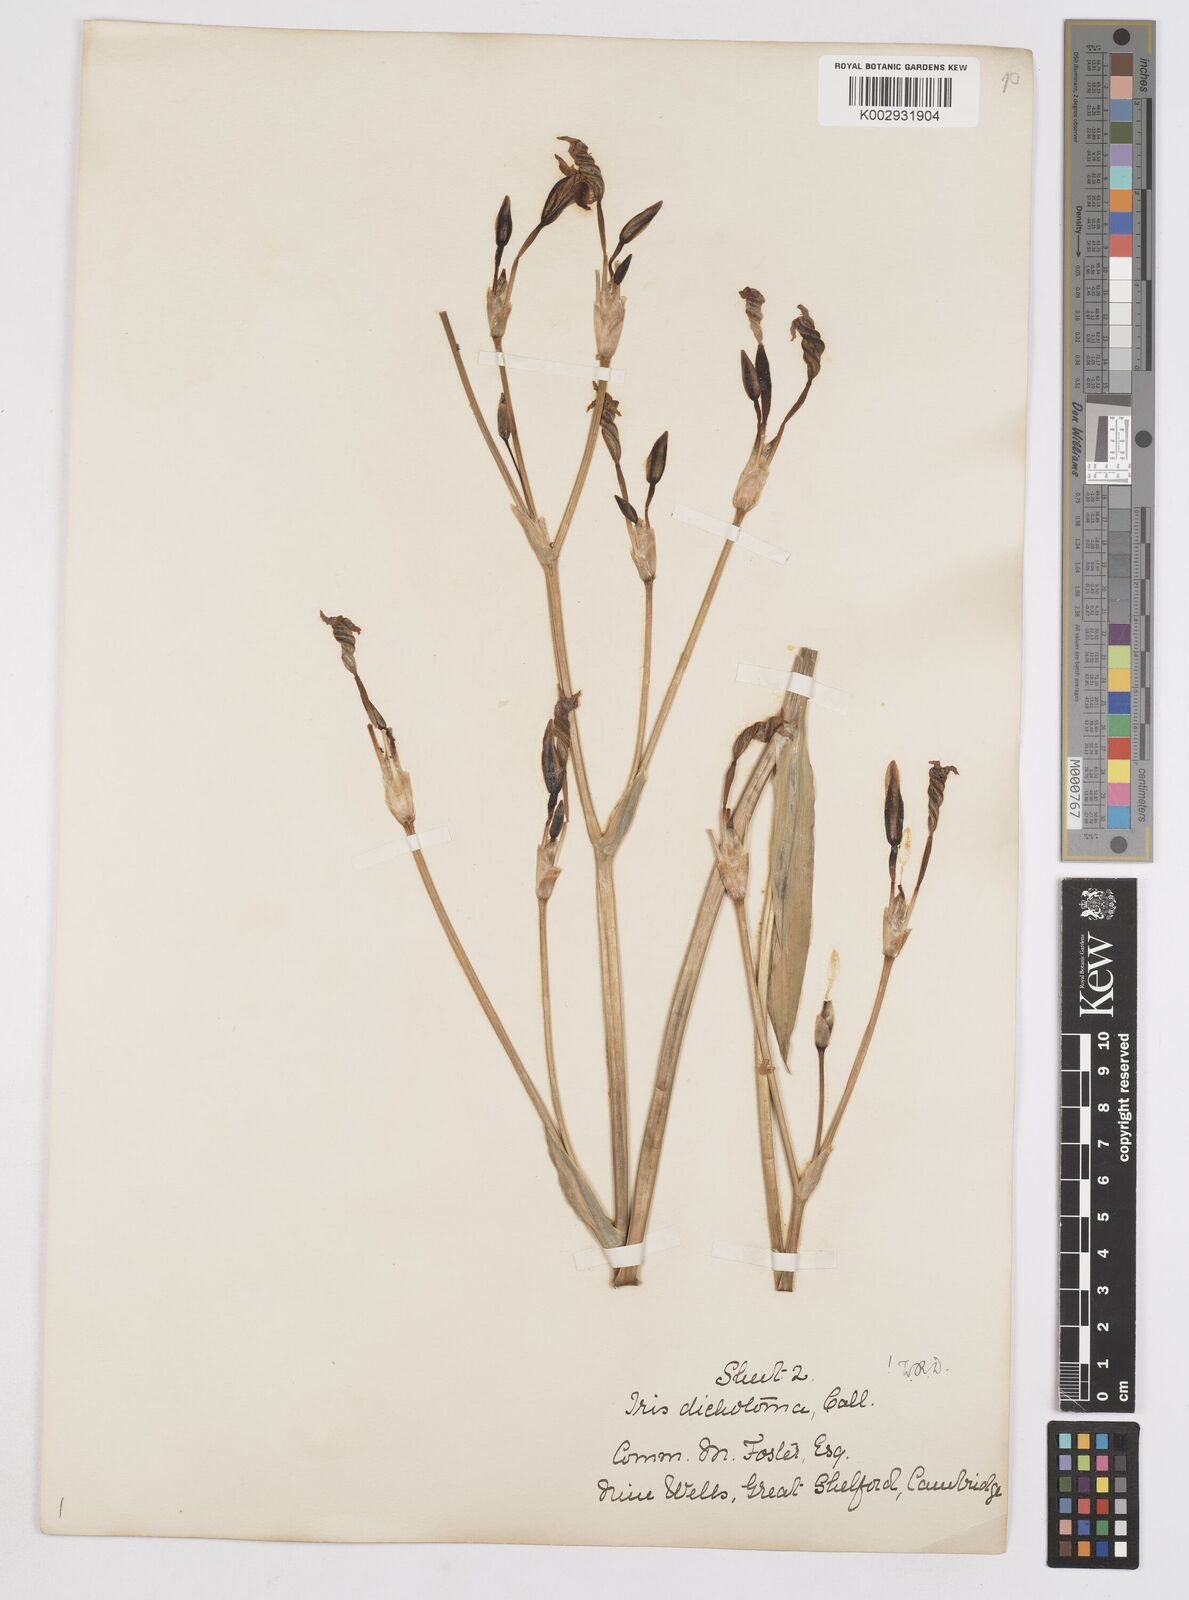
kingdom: Plantae
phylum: Tracheophyta
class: Liliopsida
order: Asparagales
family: Iridaceae
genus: Iris
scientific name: Iris dichotoma
